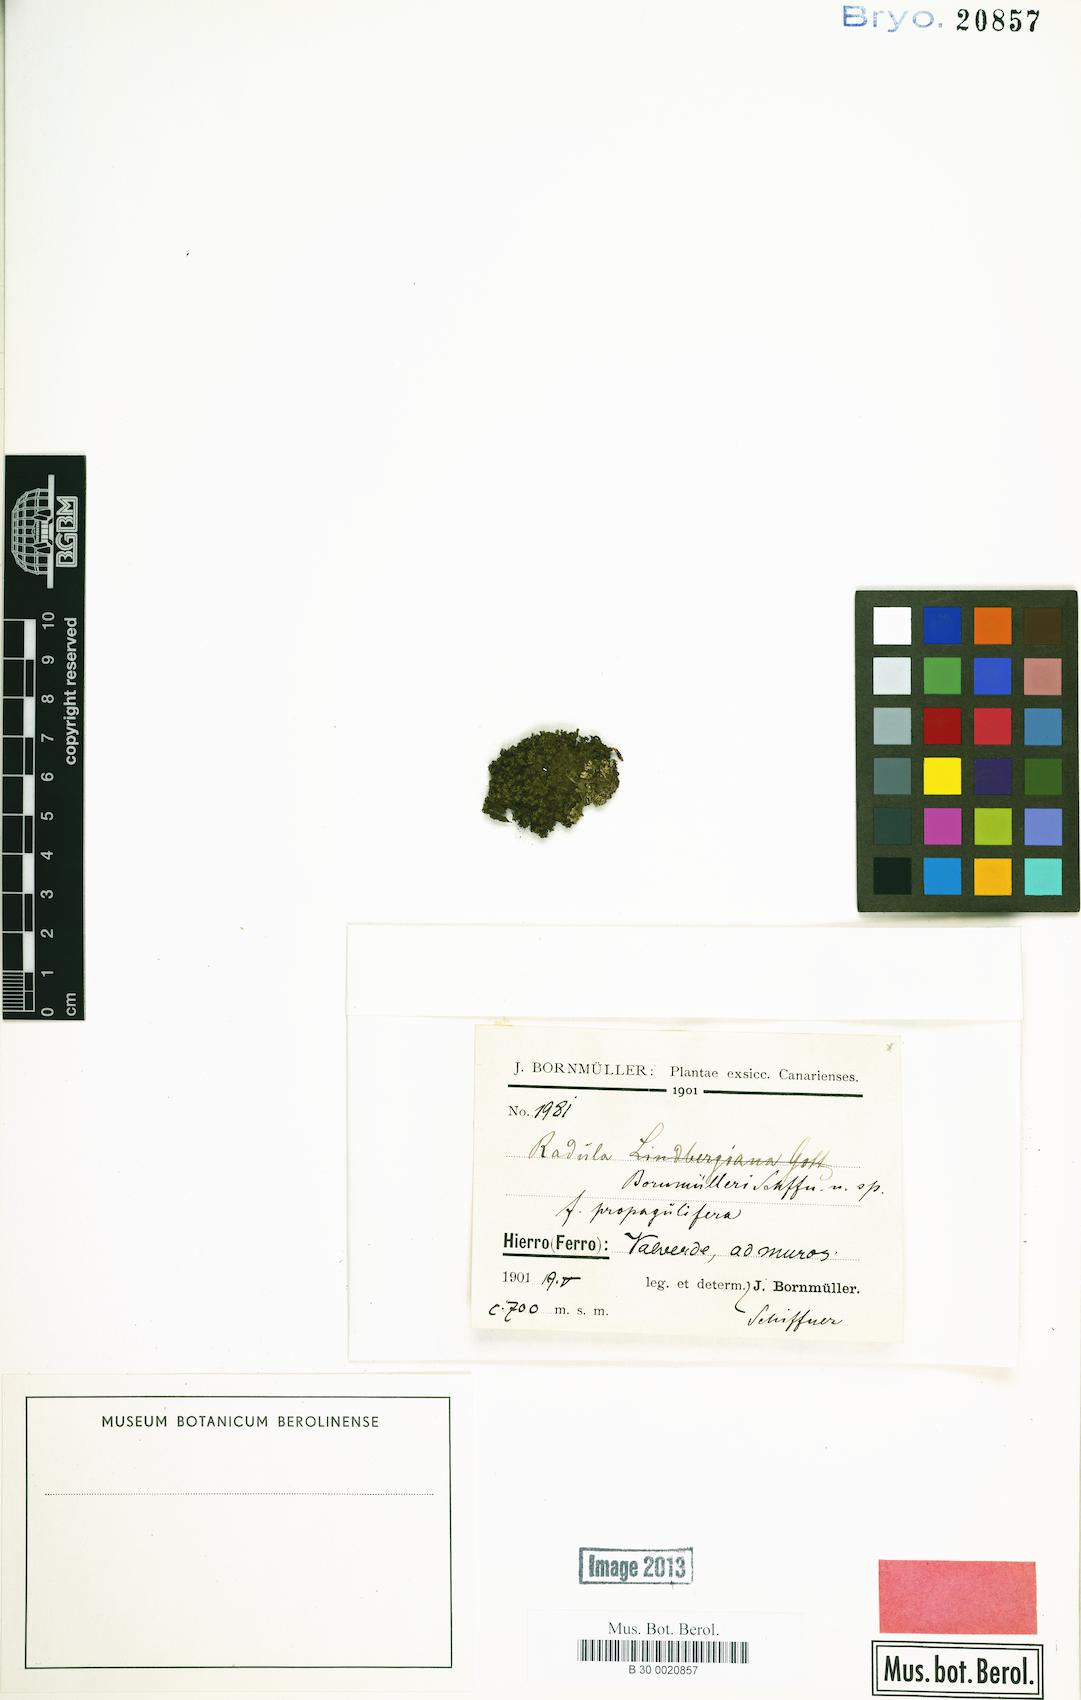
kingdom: Plantae
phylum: Marchantiophyta
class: Jungermanniopsida
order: Porellales
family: Radulaceae
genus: Radula
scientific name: Radula lindenbergiana
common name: Lindenberg's scalewort
